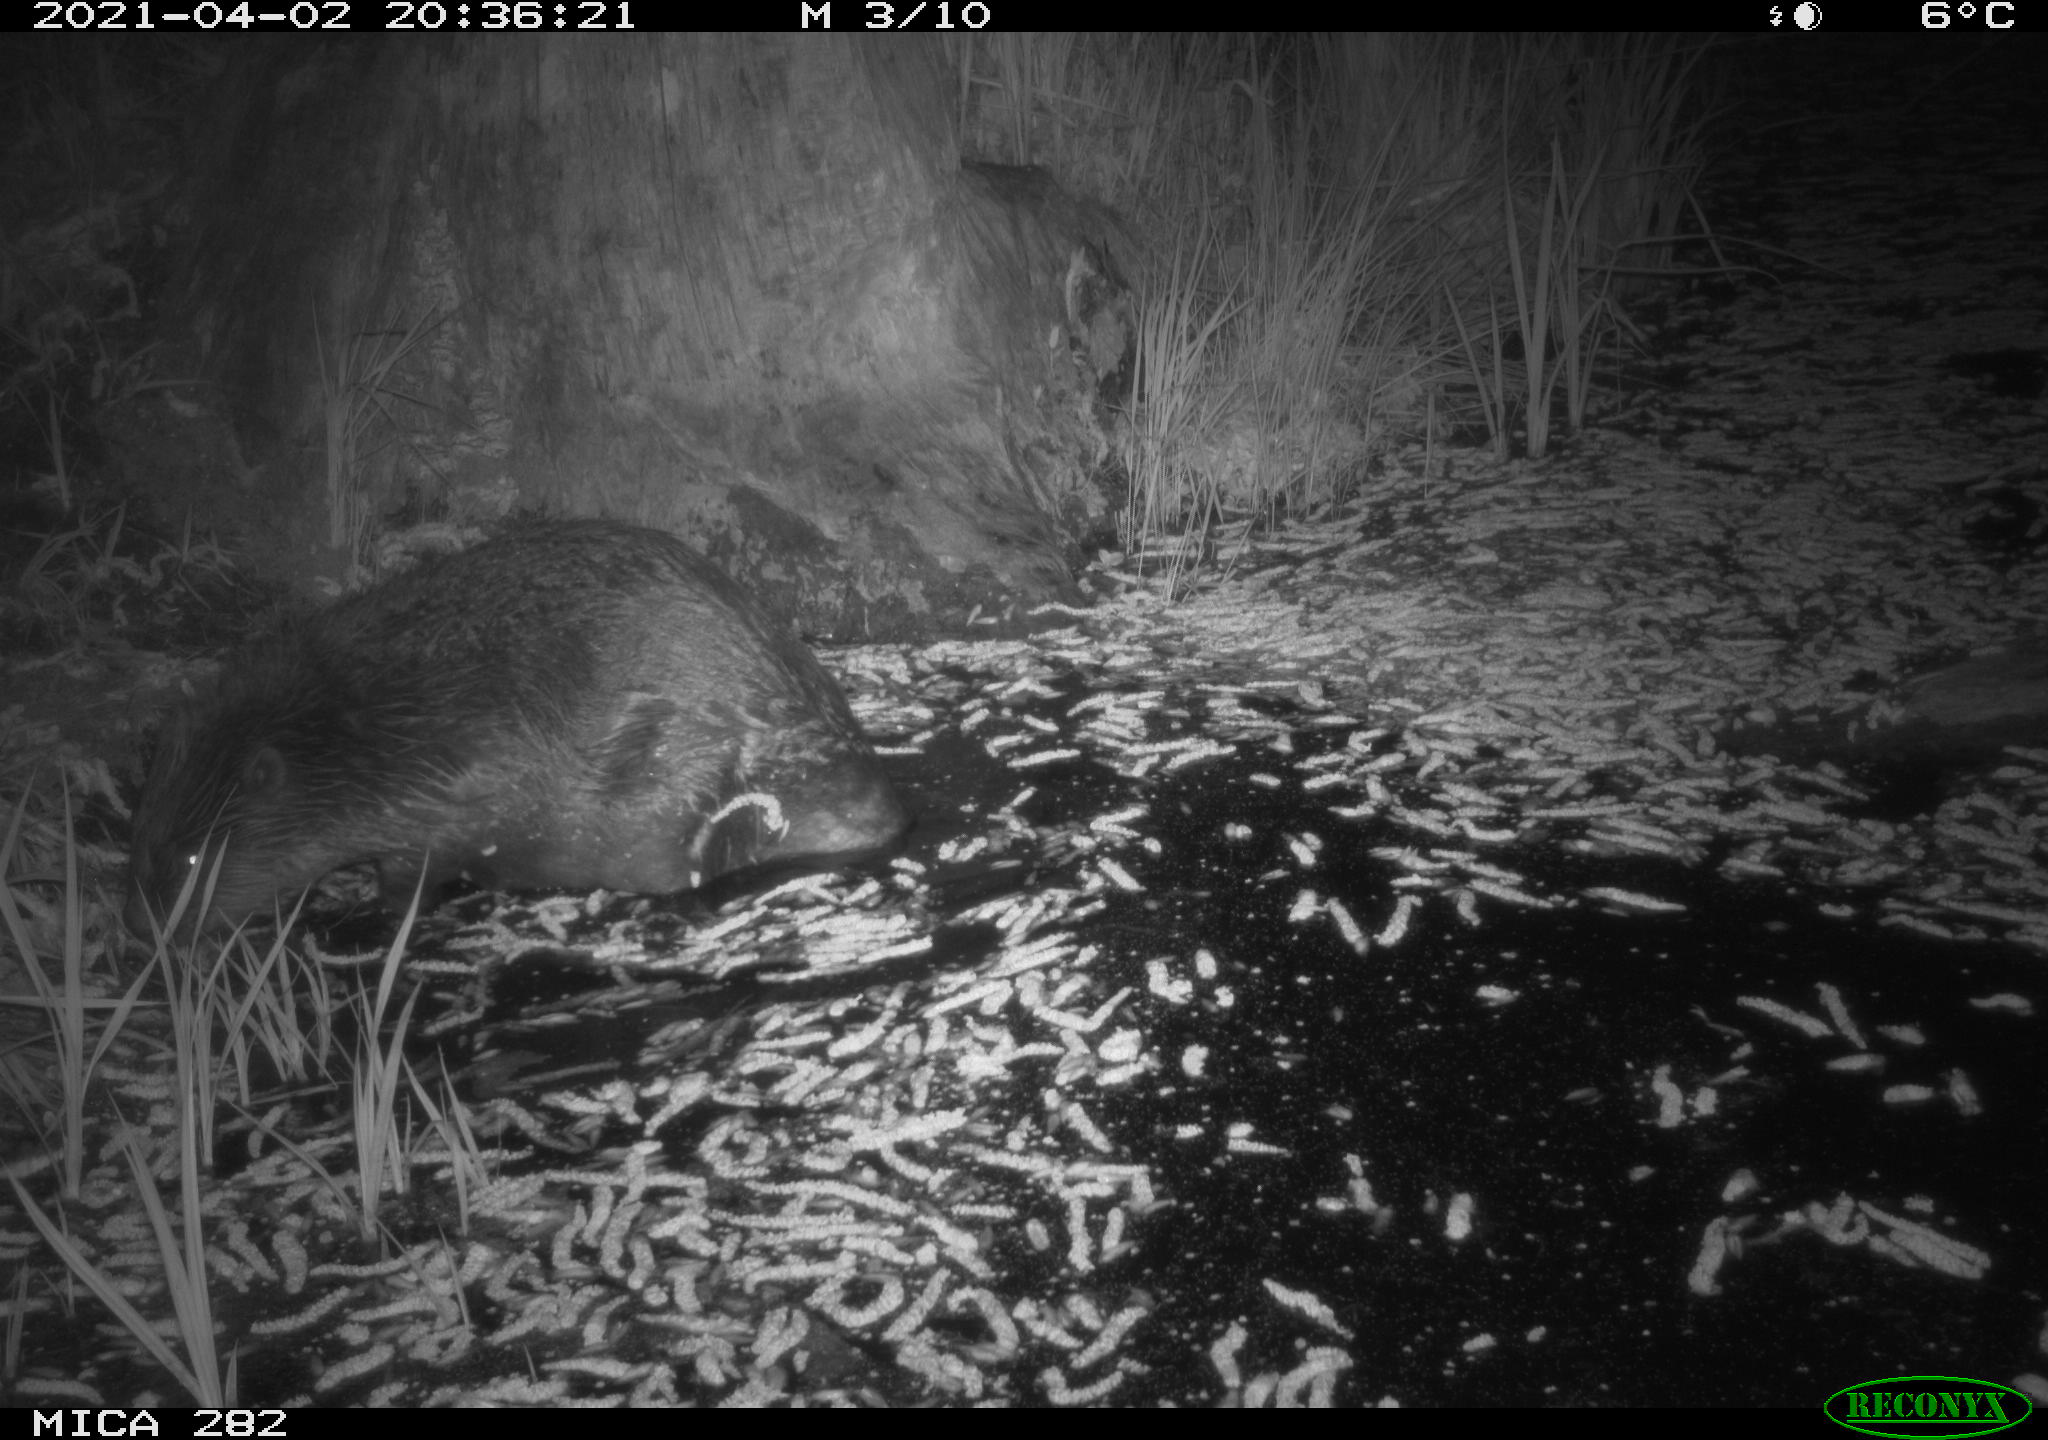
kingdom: Animalia
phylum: Chordata
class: Mammalia
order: Rodentia
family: Castoridae
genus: Castor
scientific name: Castor fiber
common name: Eurasian beaver
